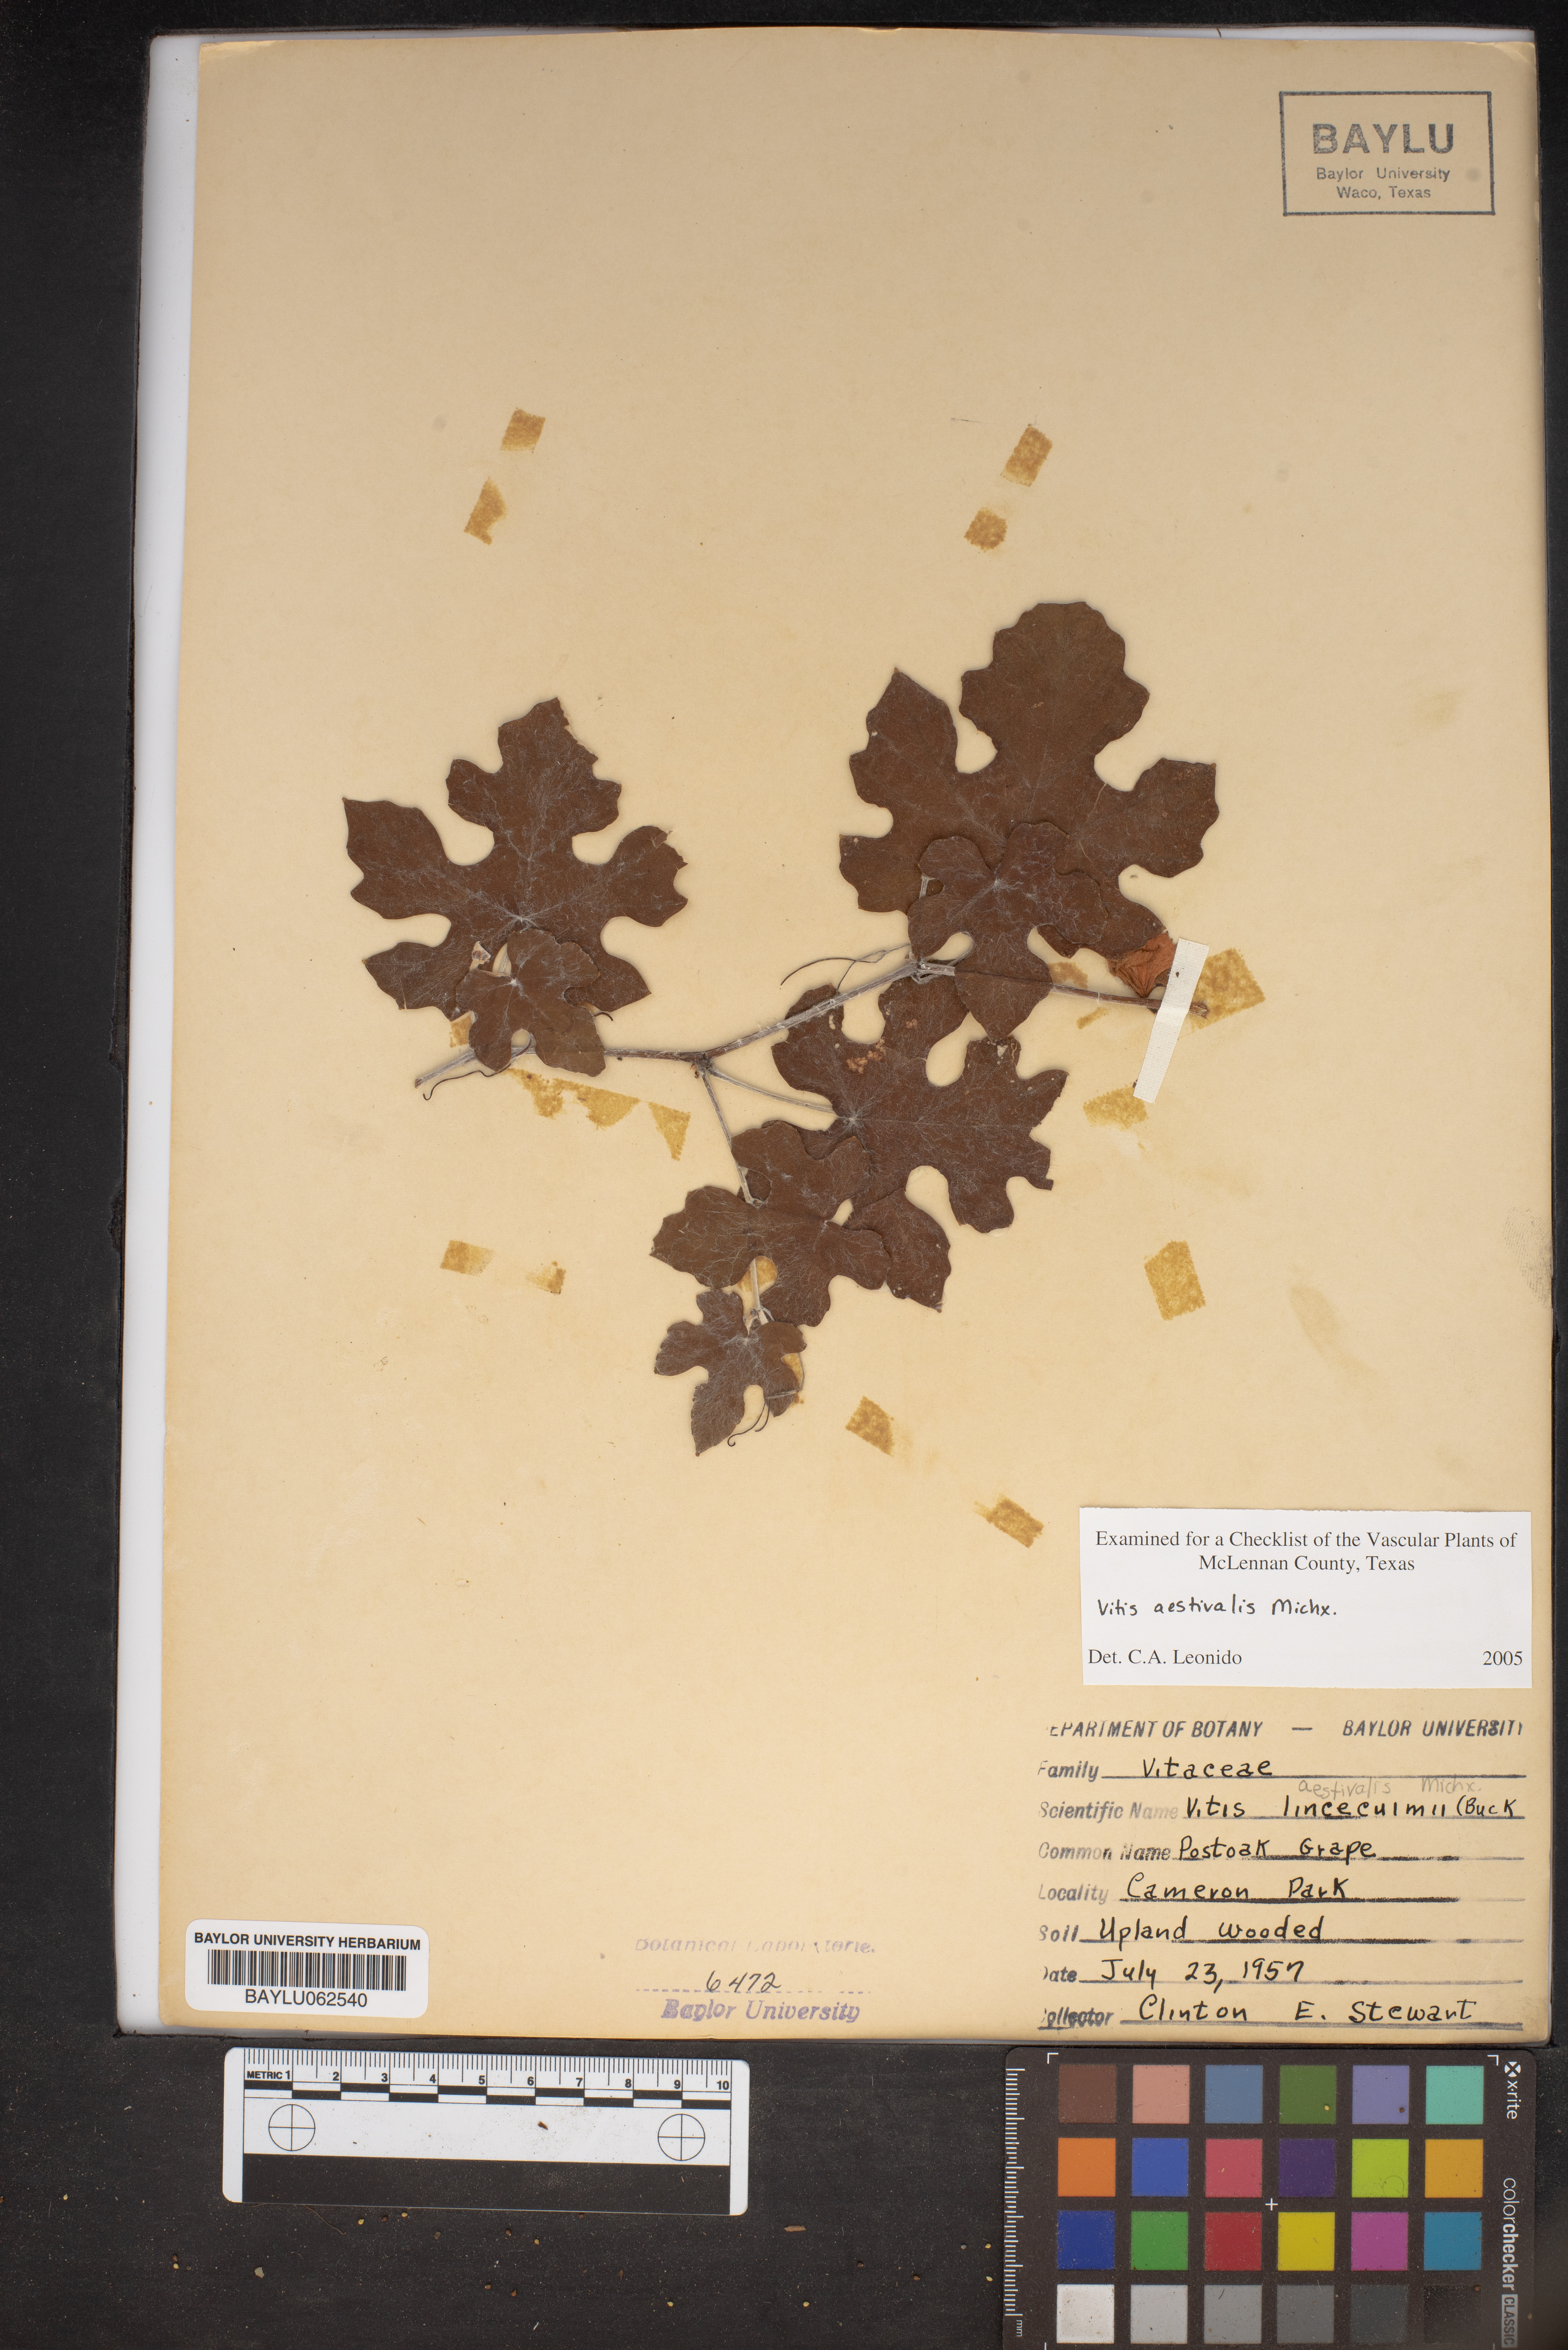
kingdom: Plantae
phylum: Tracheophyta
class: Magnoliopsida
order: Vitales
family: Vitaceae
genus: Vitis
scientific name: Vitis aestivalis
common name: Pigeon grape
